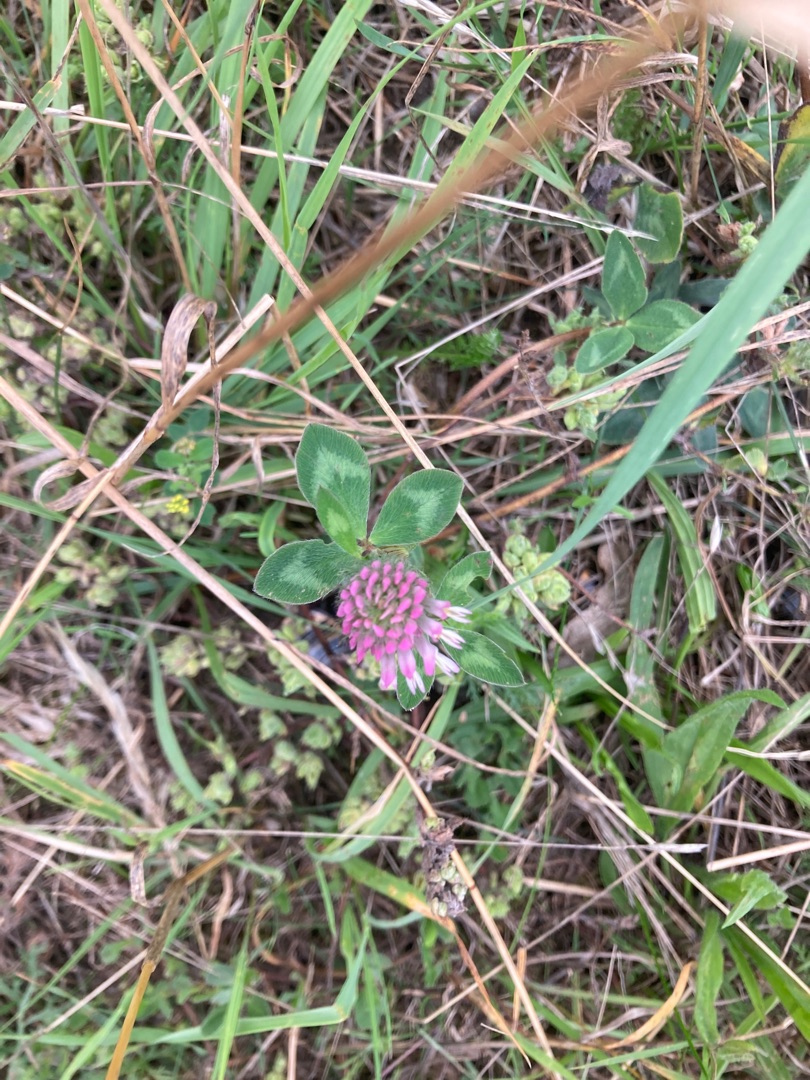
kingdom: Plantae
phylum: Tracheophyta
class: Magnoliopsida
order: Fabales
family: Fabaceae
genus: Trifolium
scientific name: Trifolium pratense
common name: Rød-kløver
